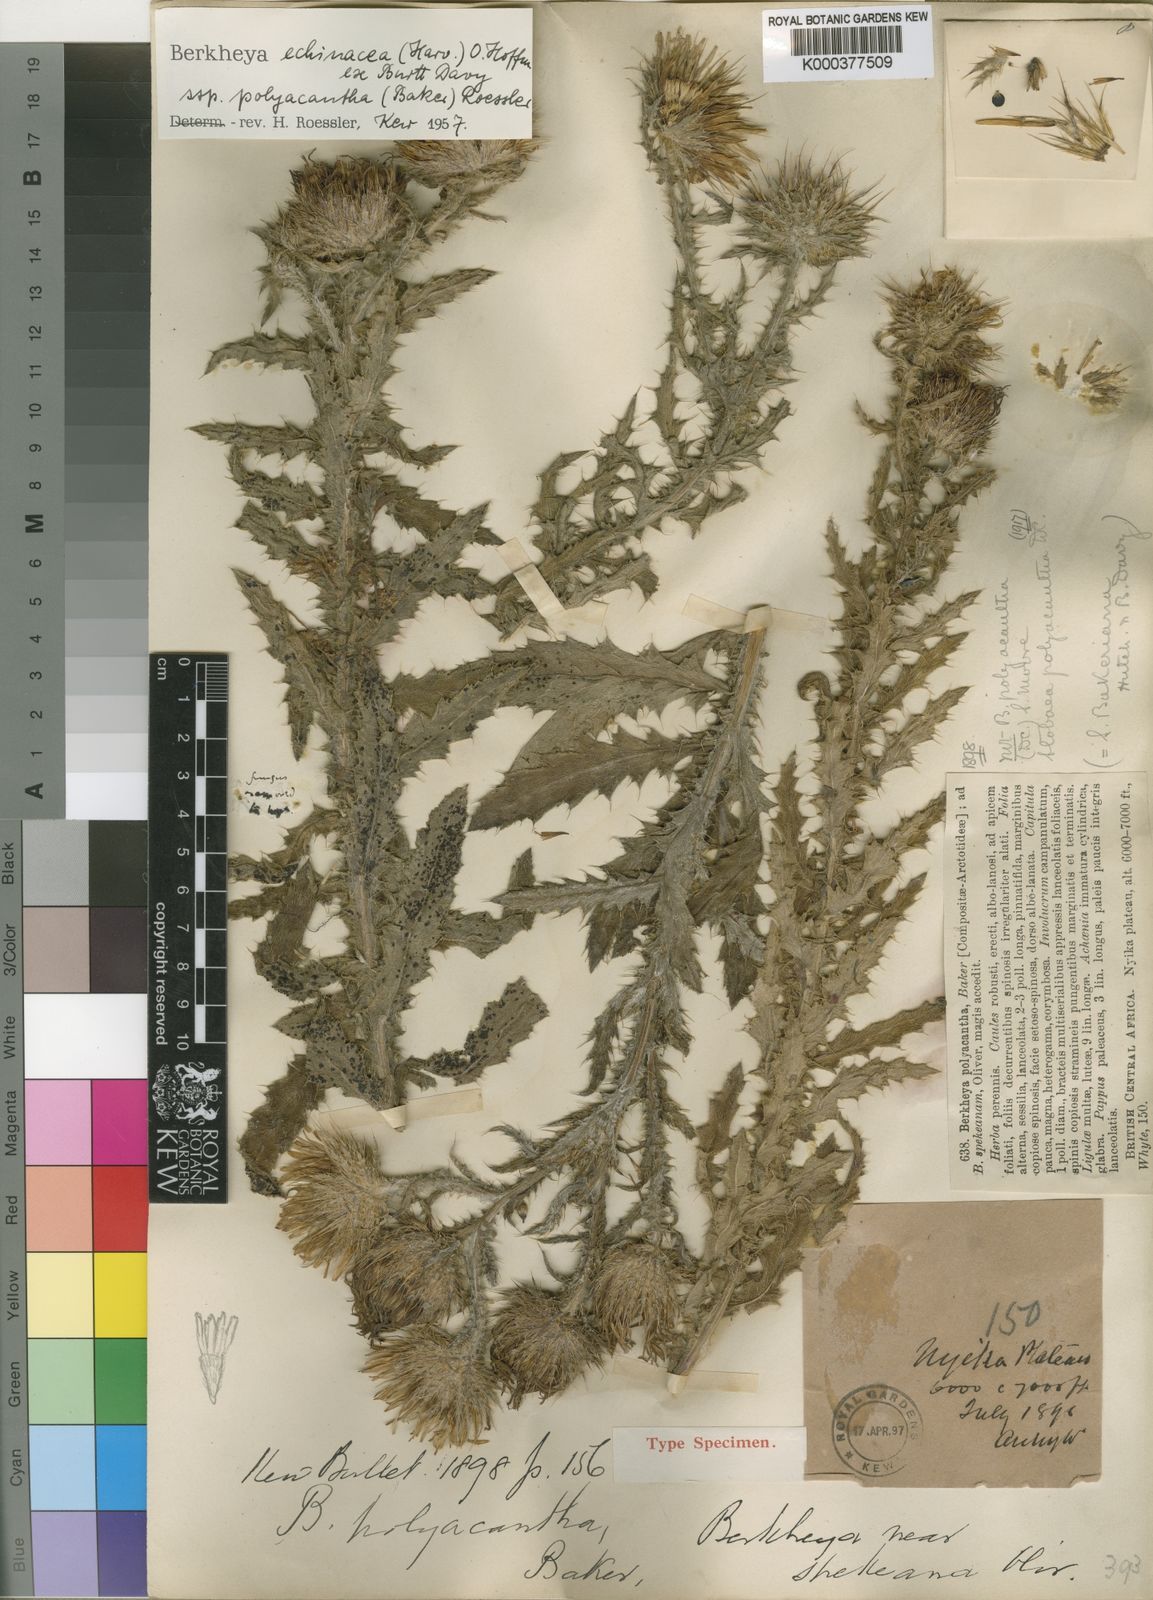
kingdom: Plantae
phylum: Tracheophyta
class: Magnoliopsida
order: Asterales
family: Asteraceae
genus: Berkheya
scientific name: Berkheya echinacea
